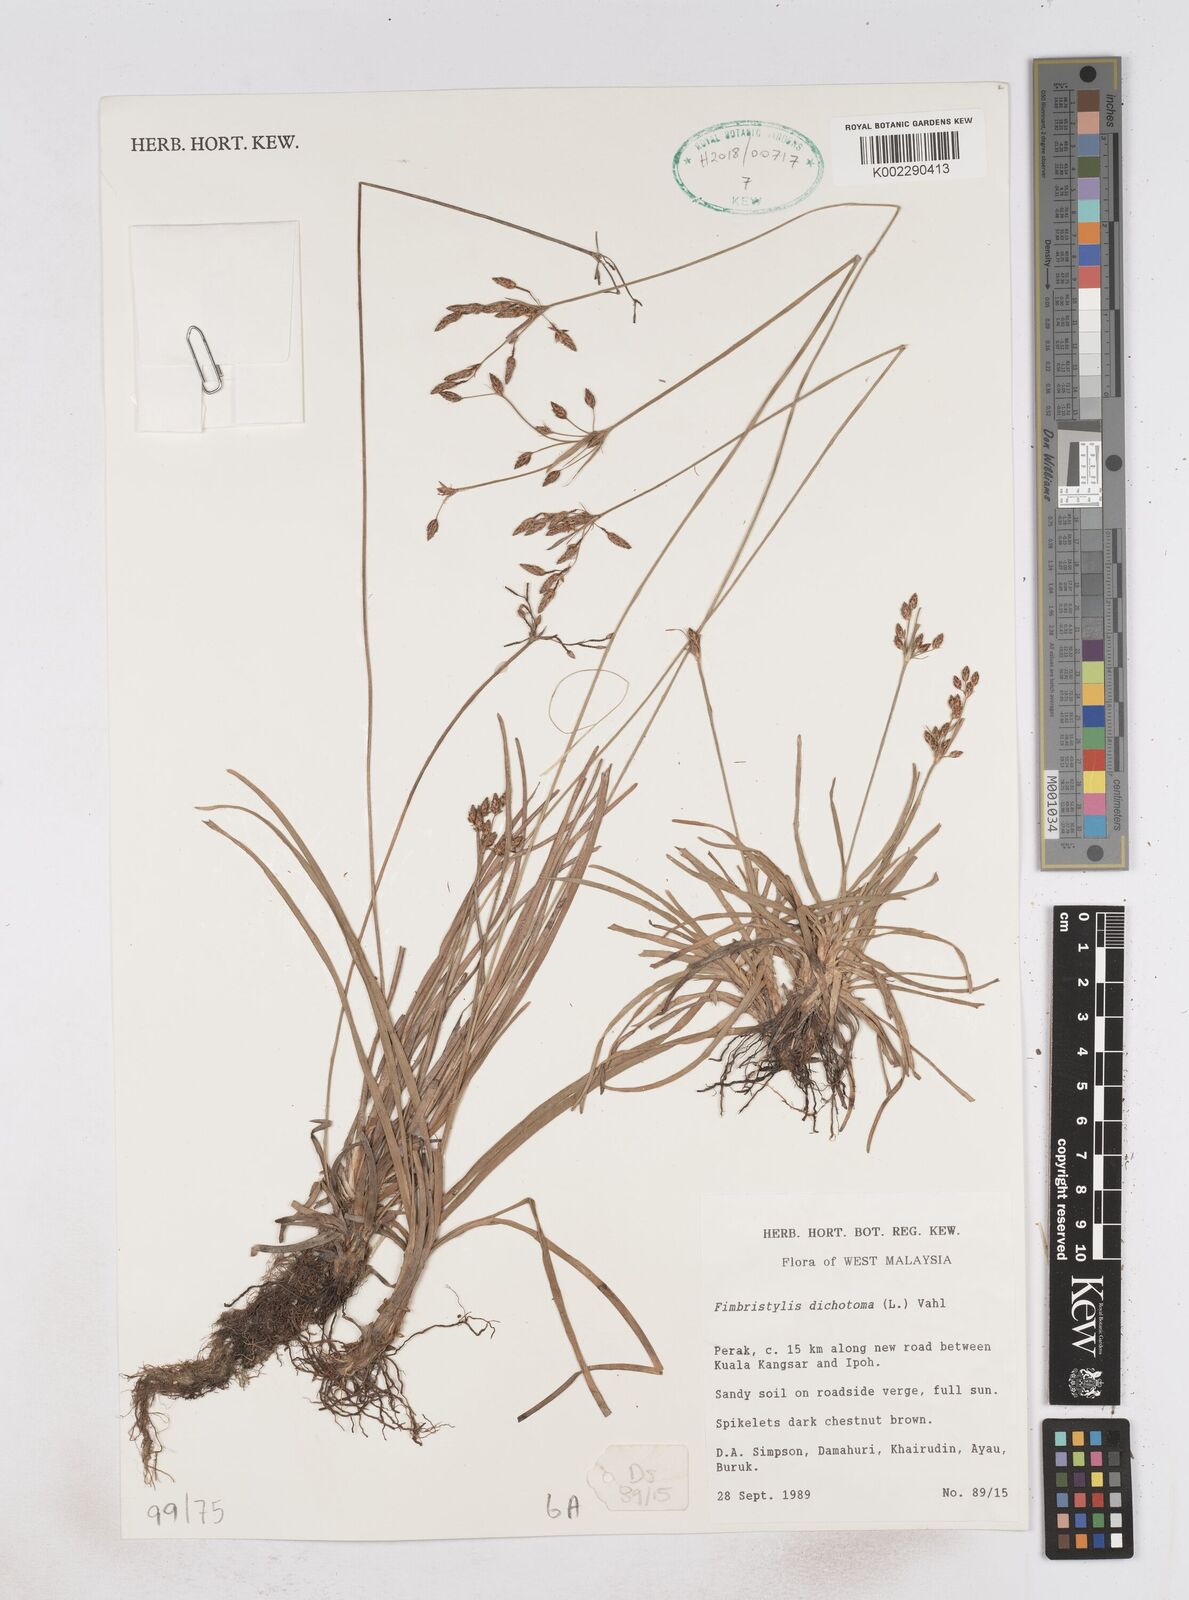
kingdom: Plantae
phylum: Tracheophyta
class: Liliopsida
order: Poales
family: Cyperaceae
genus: Fimbristylis
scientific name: Fimbristylis dichotoma
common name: Forked fimbry
